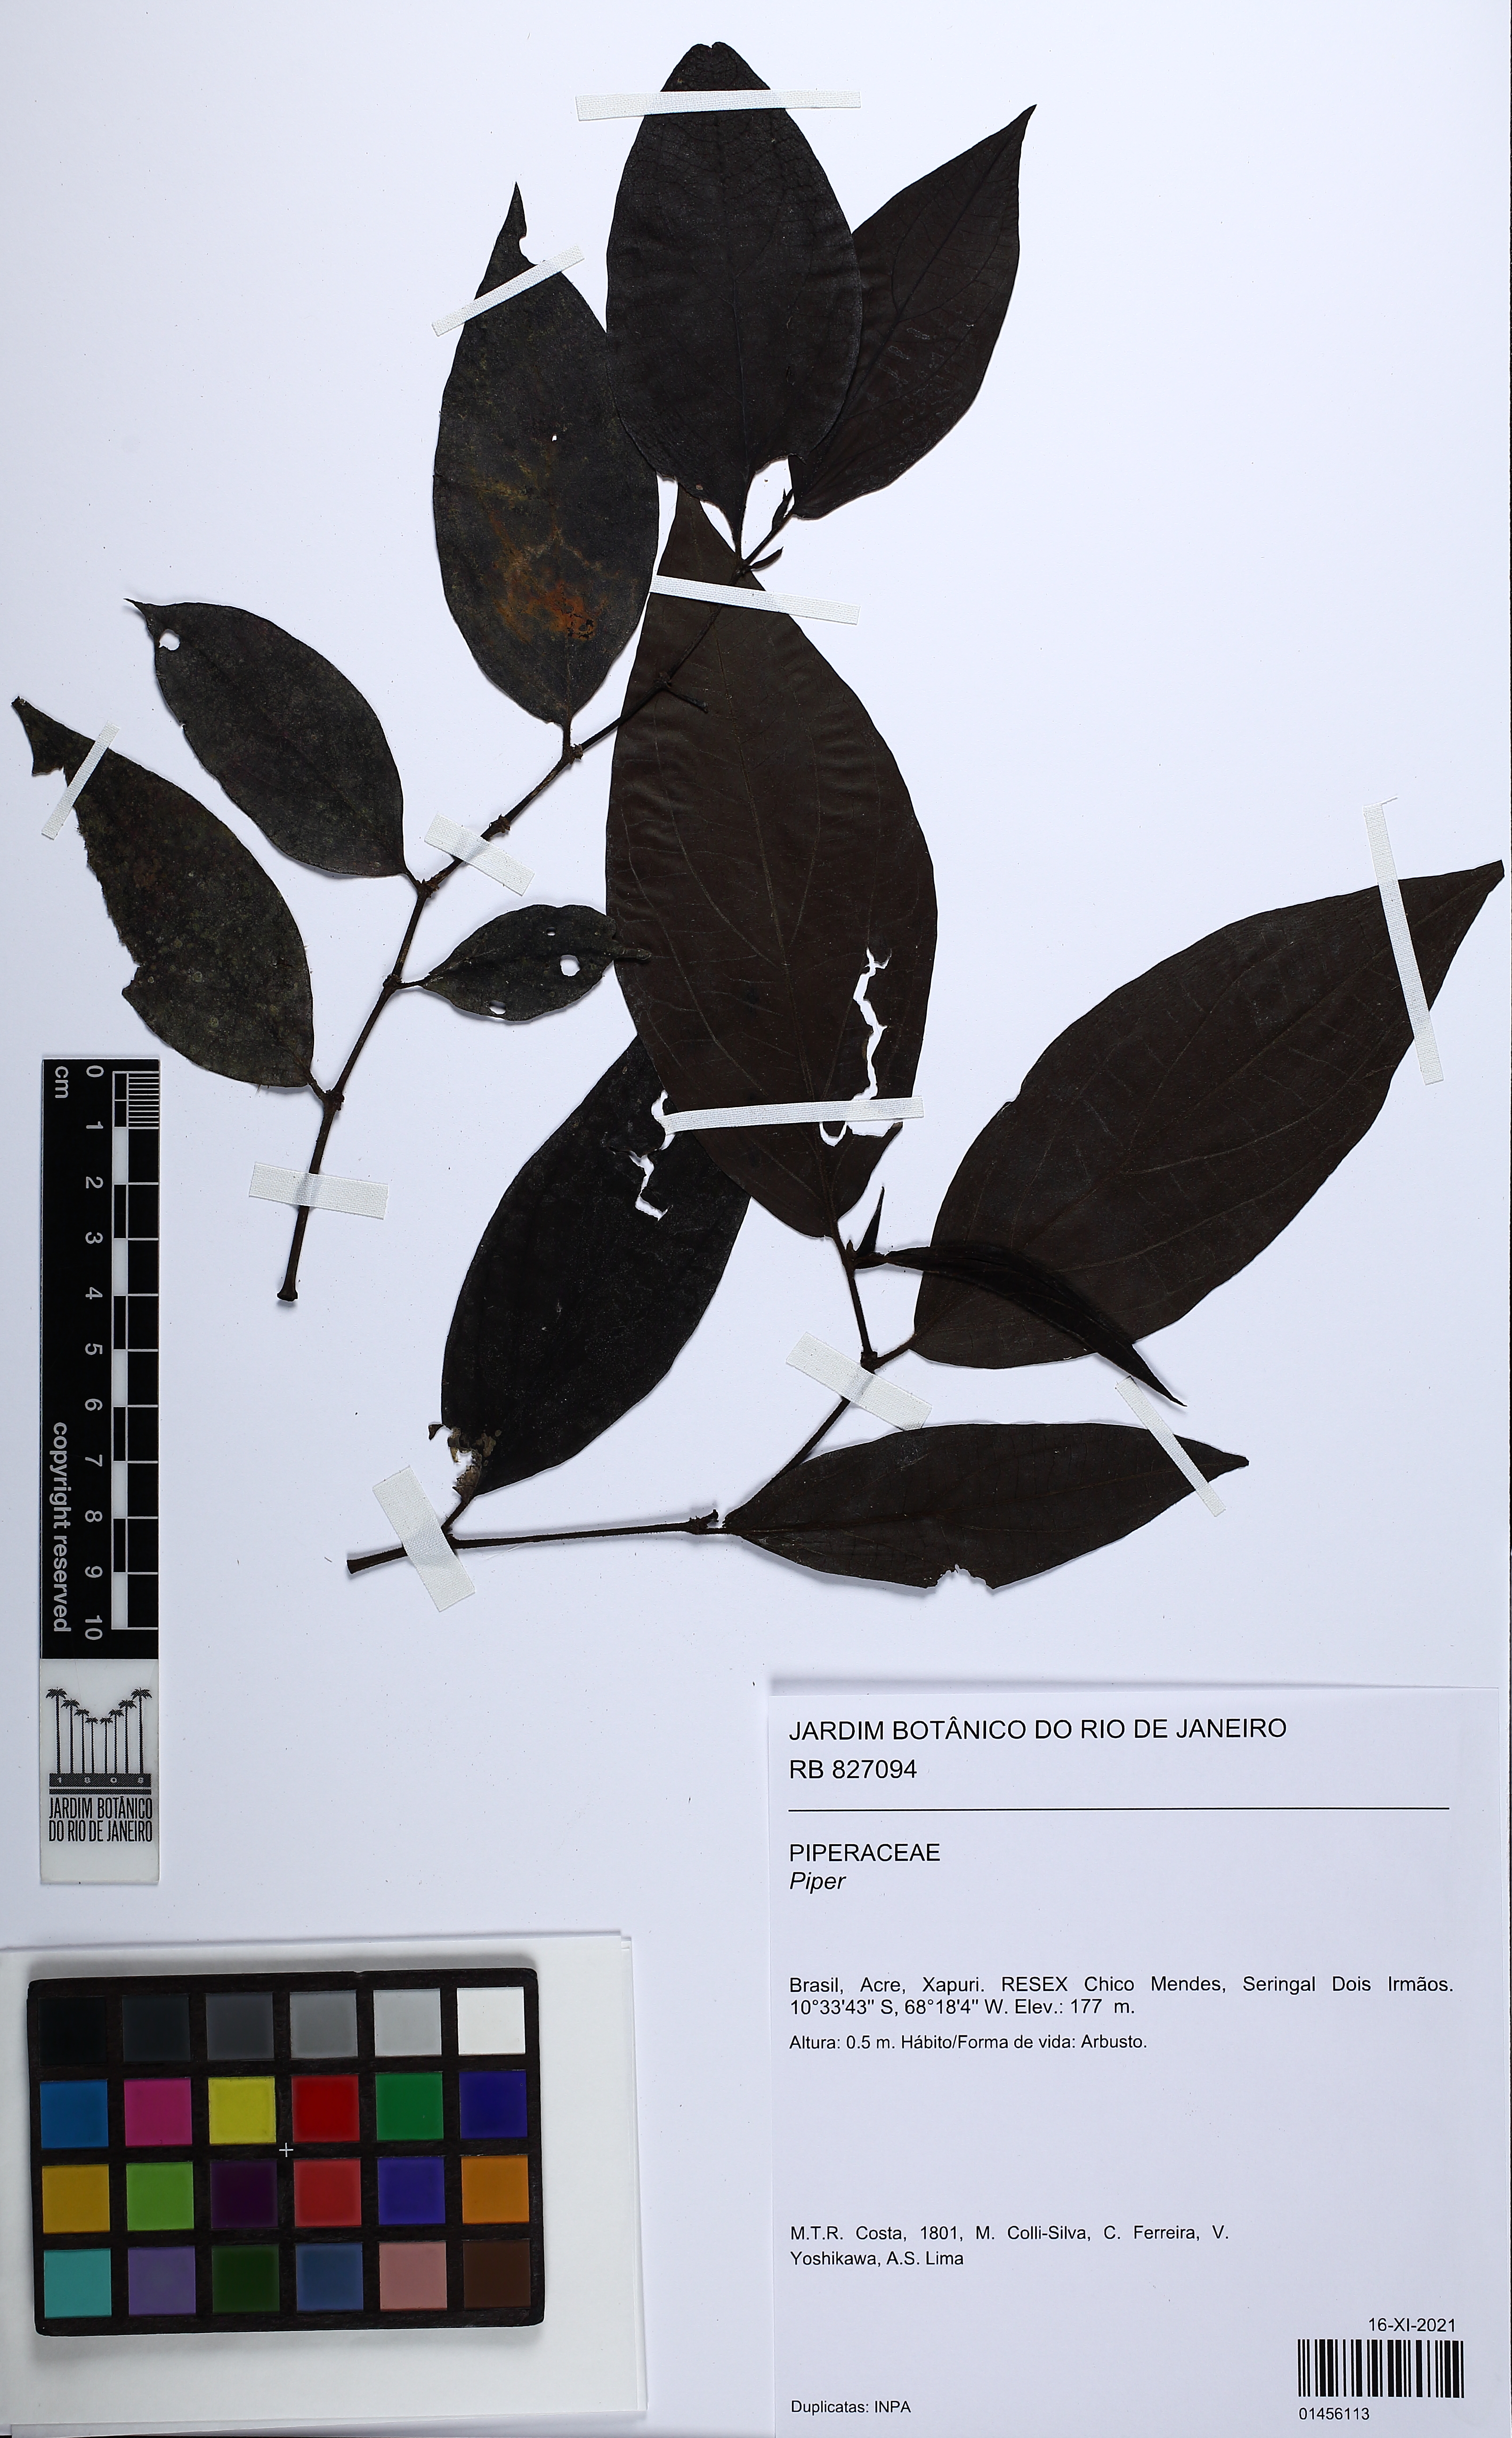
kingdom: Plantae
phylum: Tracheophyta
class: Magnoliopsida
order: Piperales
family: Piperaceae
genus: Piper
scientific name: Piper
